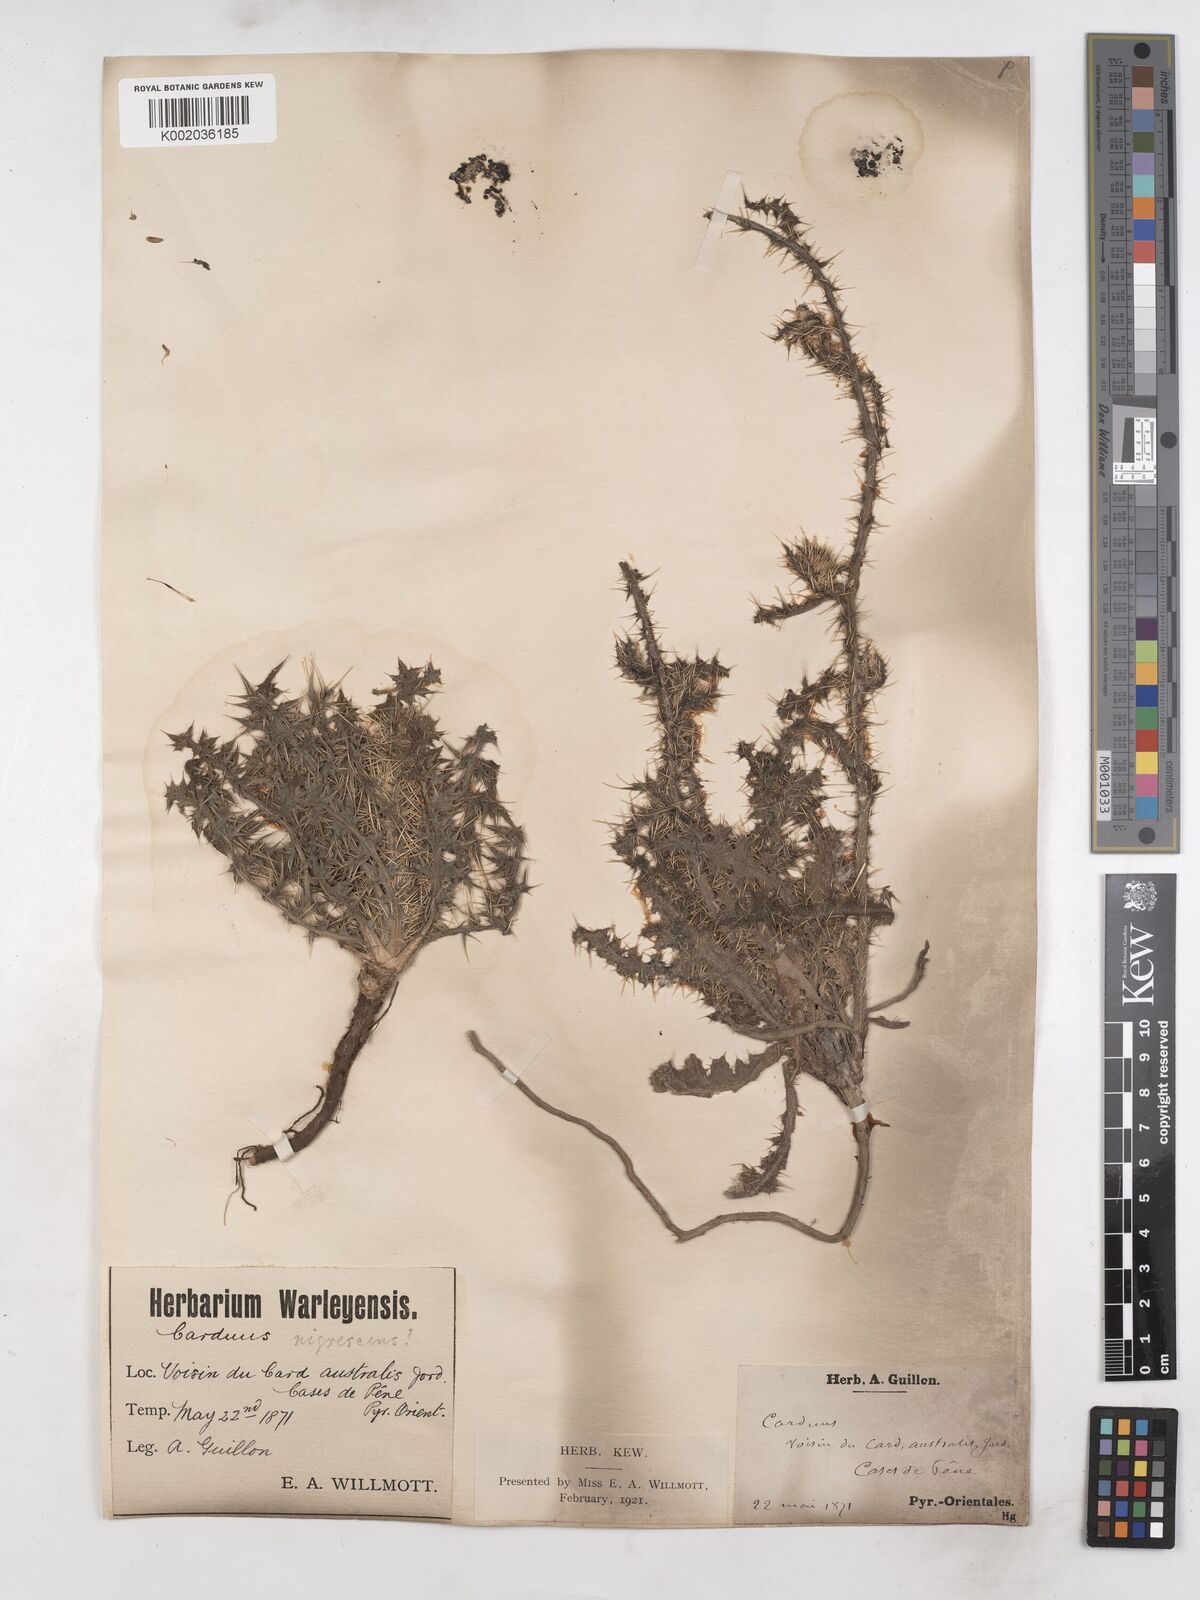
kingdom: Plantae
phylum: Tracheophyta
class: Magnoliopsida
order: Asterales
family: Asteraceae
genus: Carduus
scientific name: Carduus nigrescens
